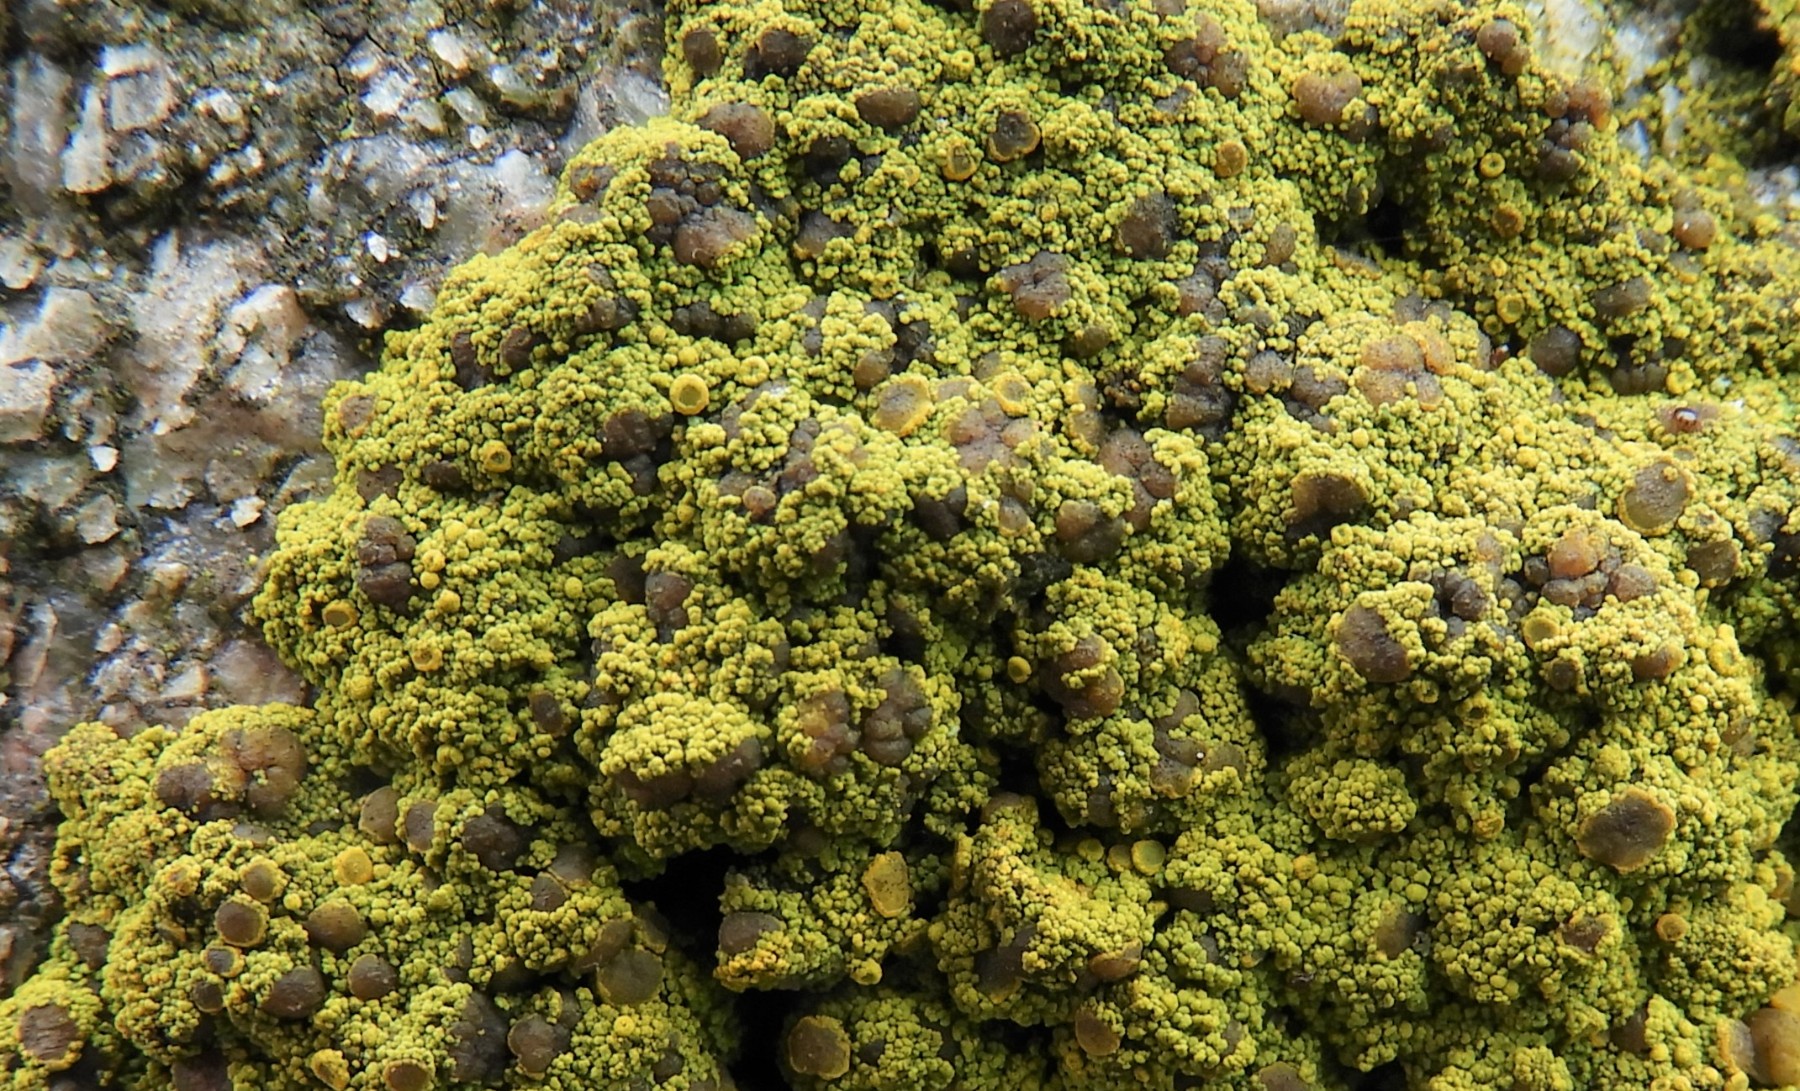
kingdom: Fungi
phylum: Ascomycota
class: Candelariomycetes
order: Candelariales
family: Candelariaceae
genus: Candelariella
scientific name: Candelariella vitellina
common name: almindelig æggeblommelav
